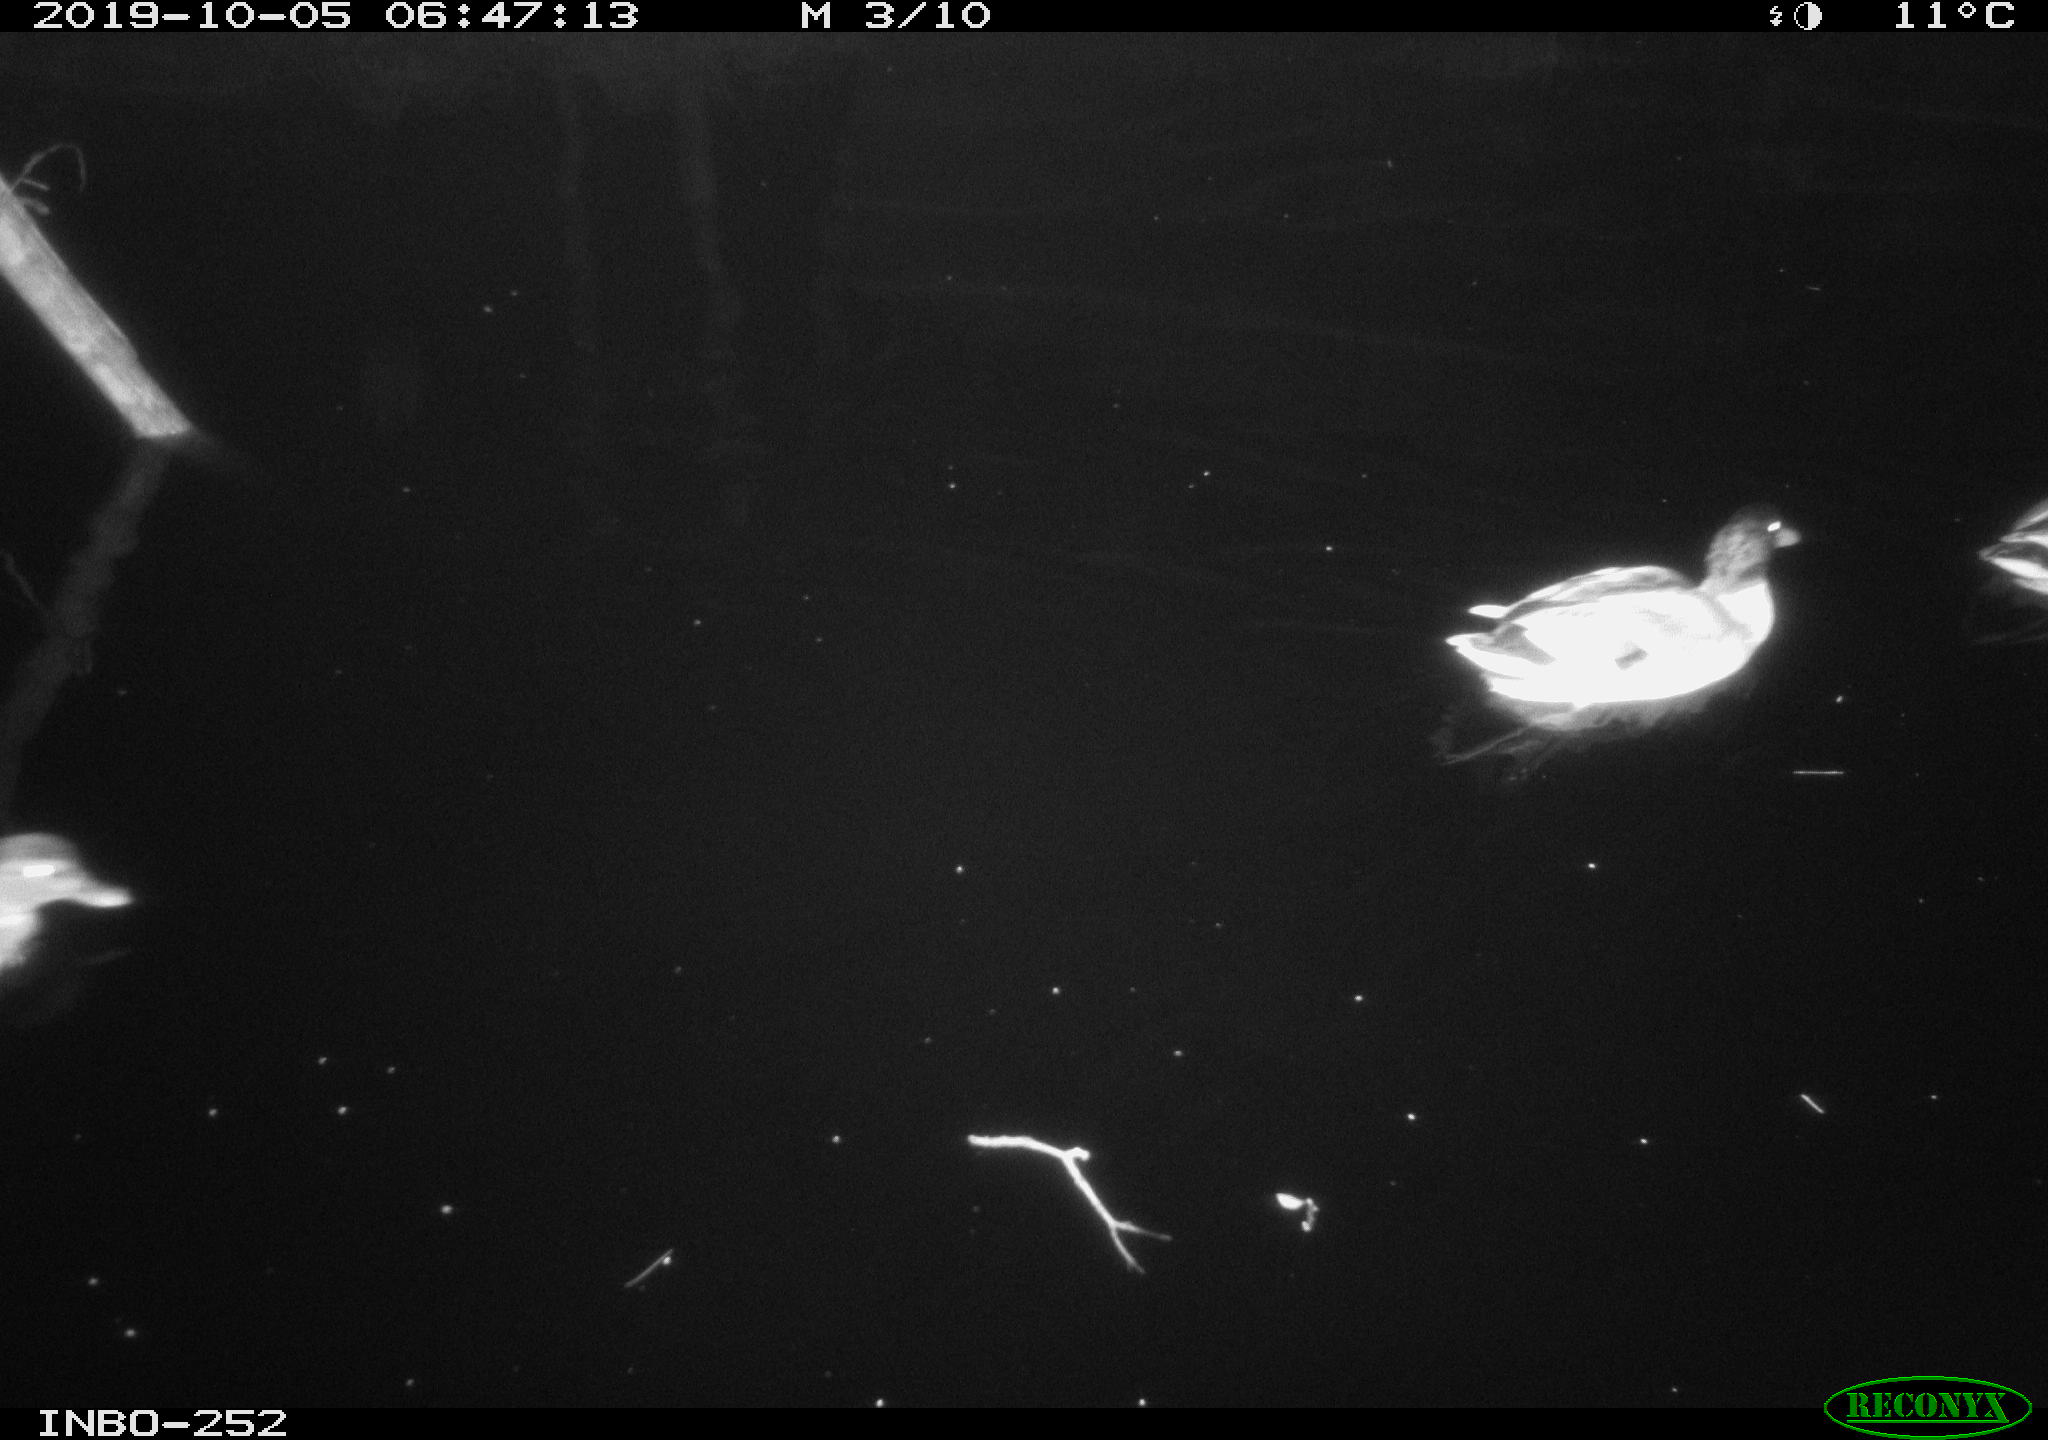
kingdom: Animalia
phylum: Chordata
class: Aves
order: Anseriformes
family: Anatidae
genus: Anas
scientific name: Anas platyrhynchos
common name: Mallard
